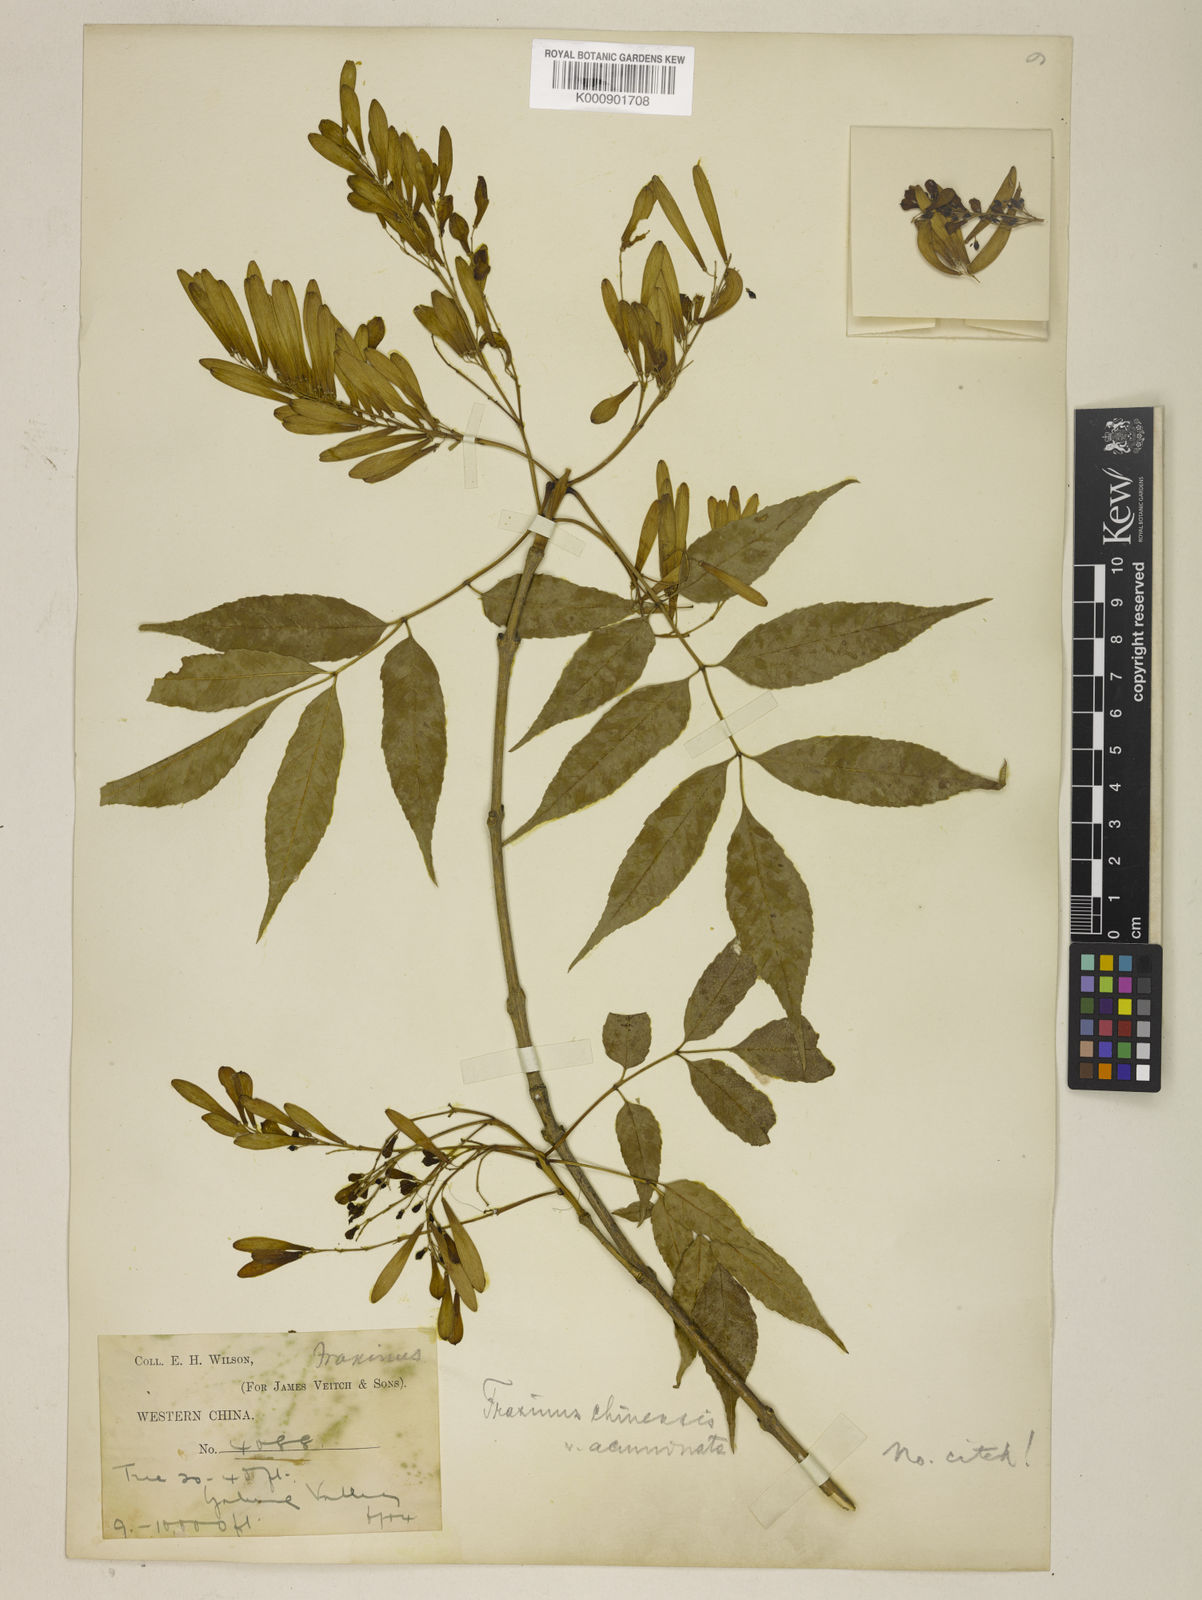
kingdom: Plantae
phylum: Tracheophyta
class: Magnoliopsida
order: Lamiales
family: Oleaceae
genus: Fraxinus
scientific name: Fraxinus chinensis
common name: Chinese ash
